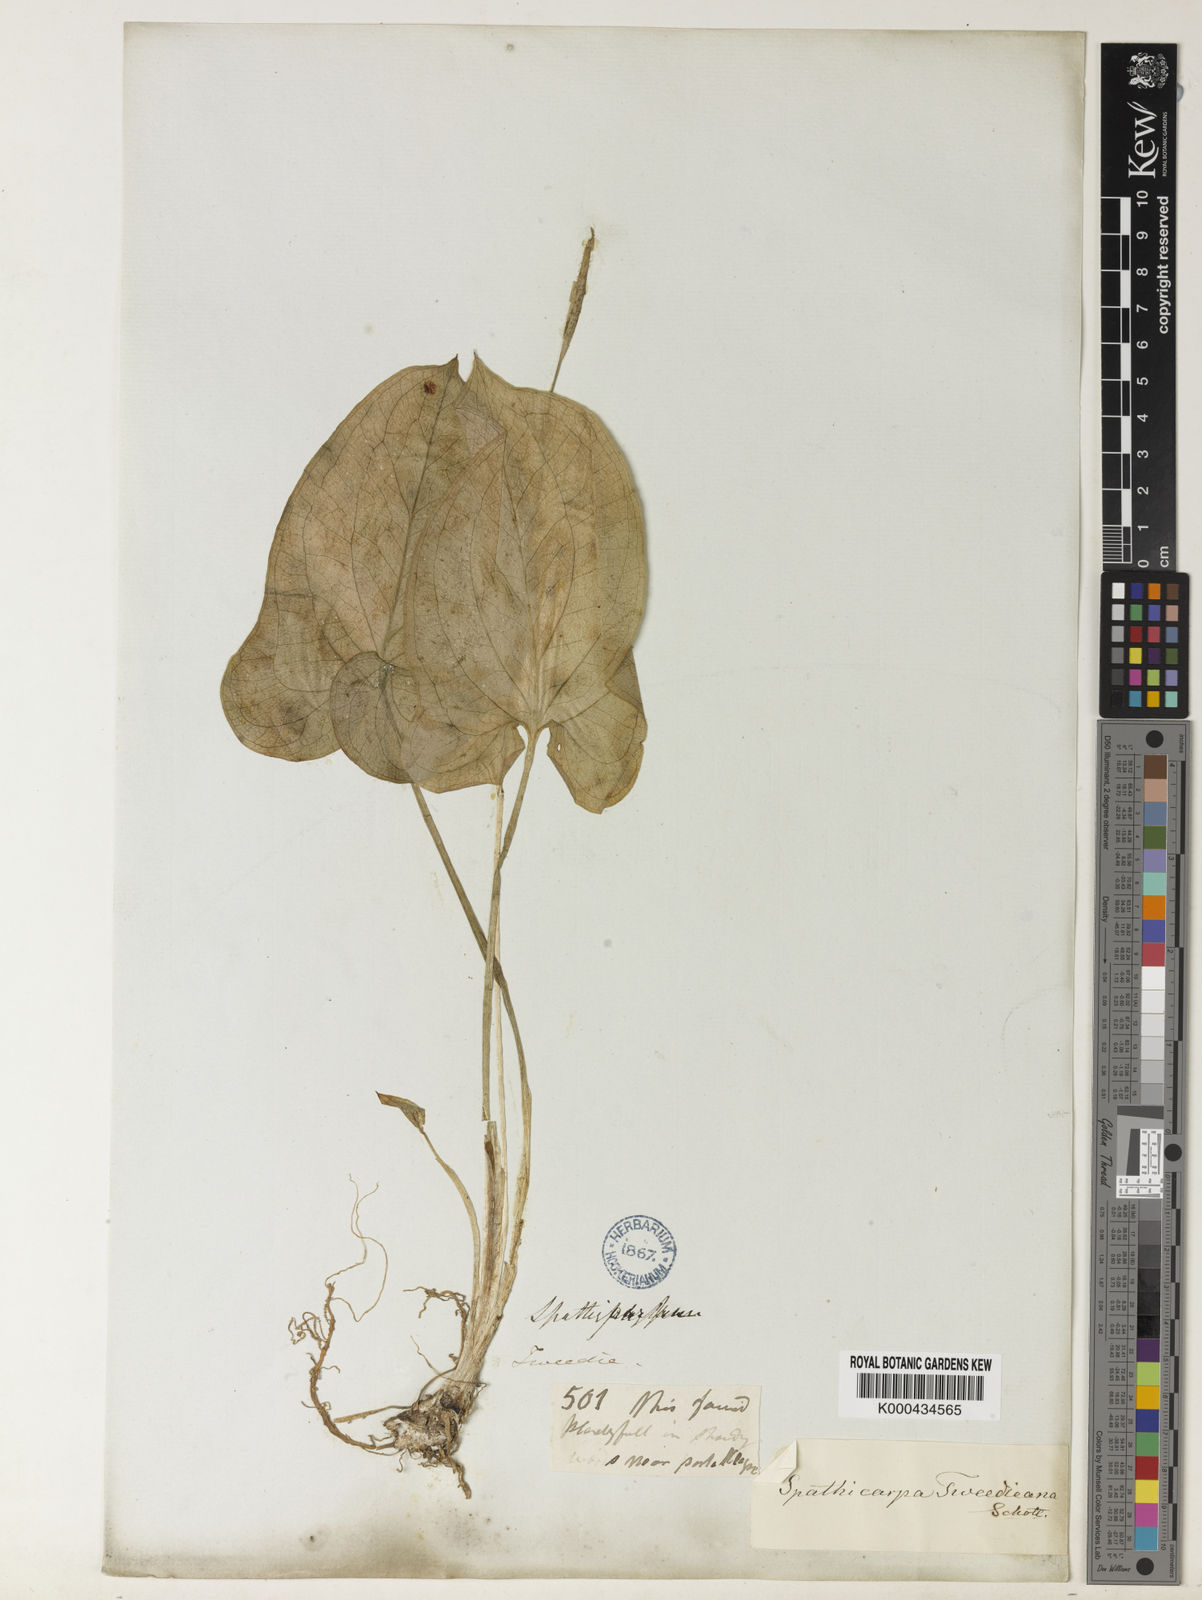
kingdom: Plantae
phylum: Tracheophyta
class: Liliopsida
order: Alismatales
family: Araceae
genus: Spathicarpa
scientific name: Spathicarpa hastifolia
